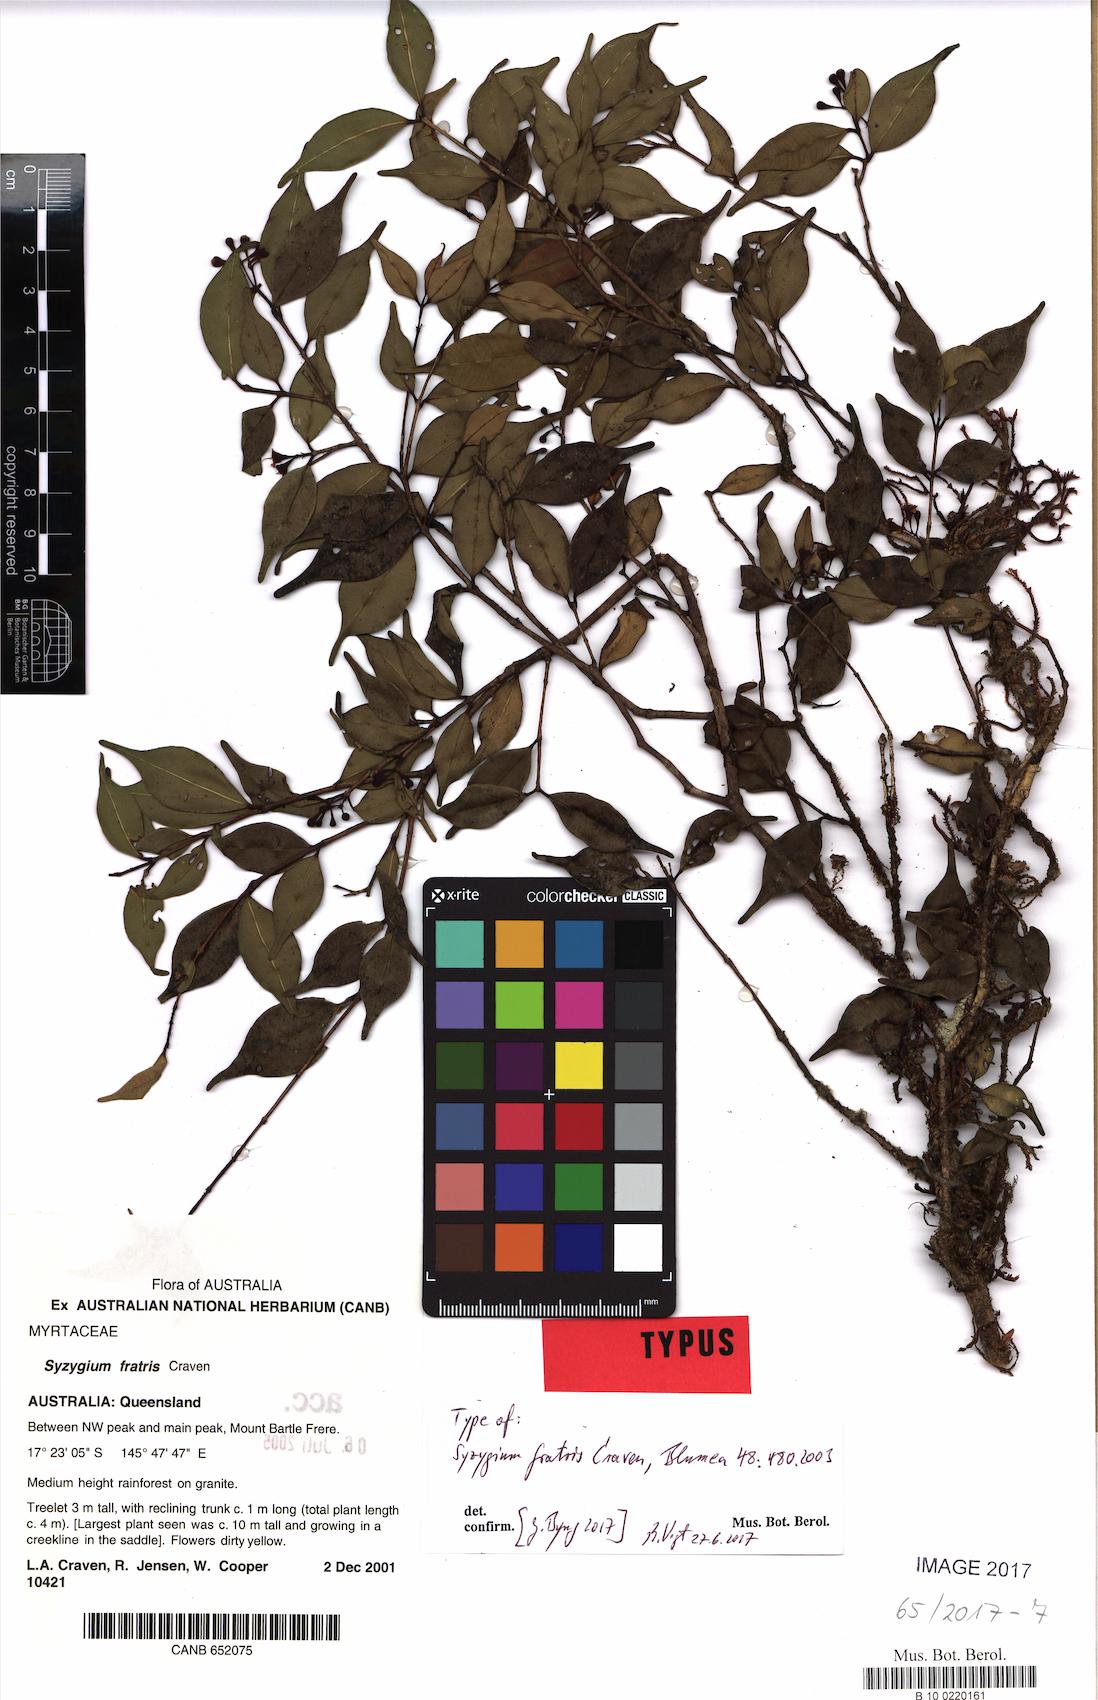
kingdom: Plantae
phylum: Tracheophyta
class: Magnoliopsida
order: Myrtales
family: Myrtaceae
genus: Syzygium
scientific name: Syzygium fratris
